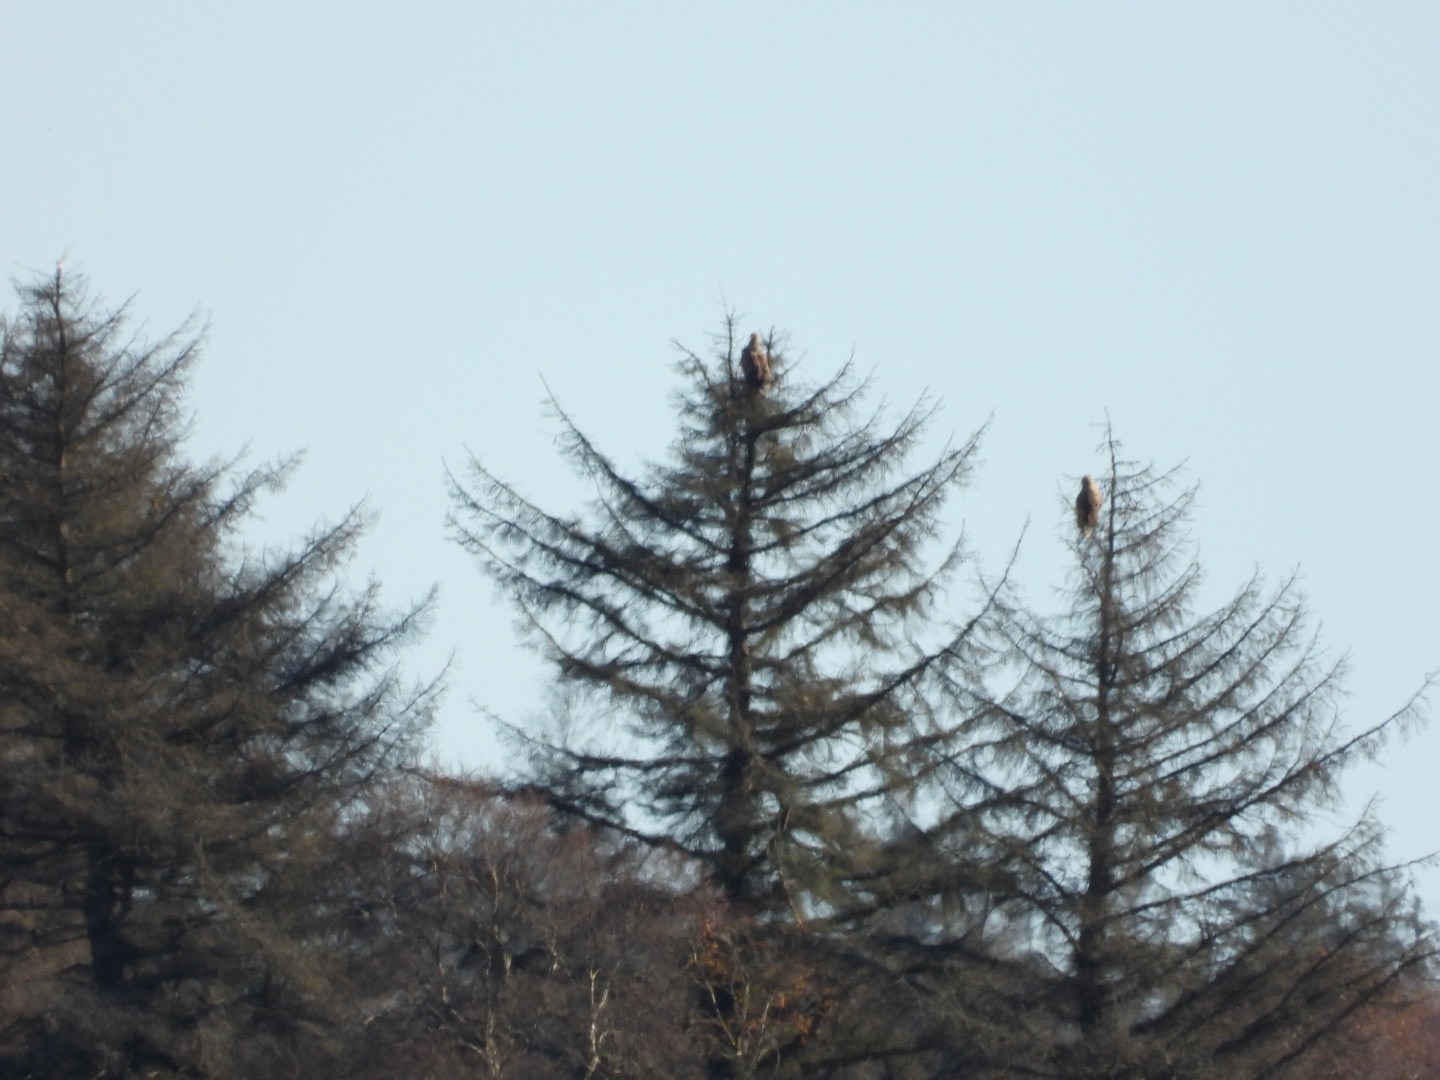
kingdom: Animalia
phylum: Chordata
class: Aves
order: Accipitriformes
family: Accipitridae
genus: Haliaeetus
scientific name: Haliaeetus albicilla
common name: Havørn
